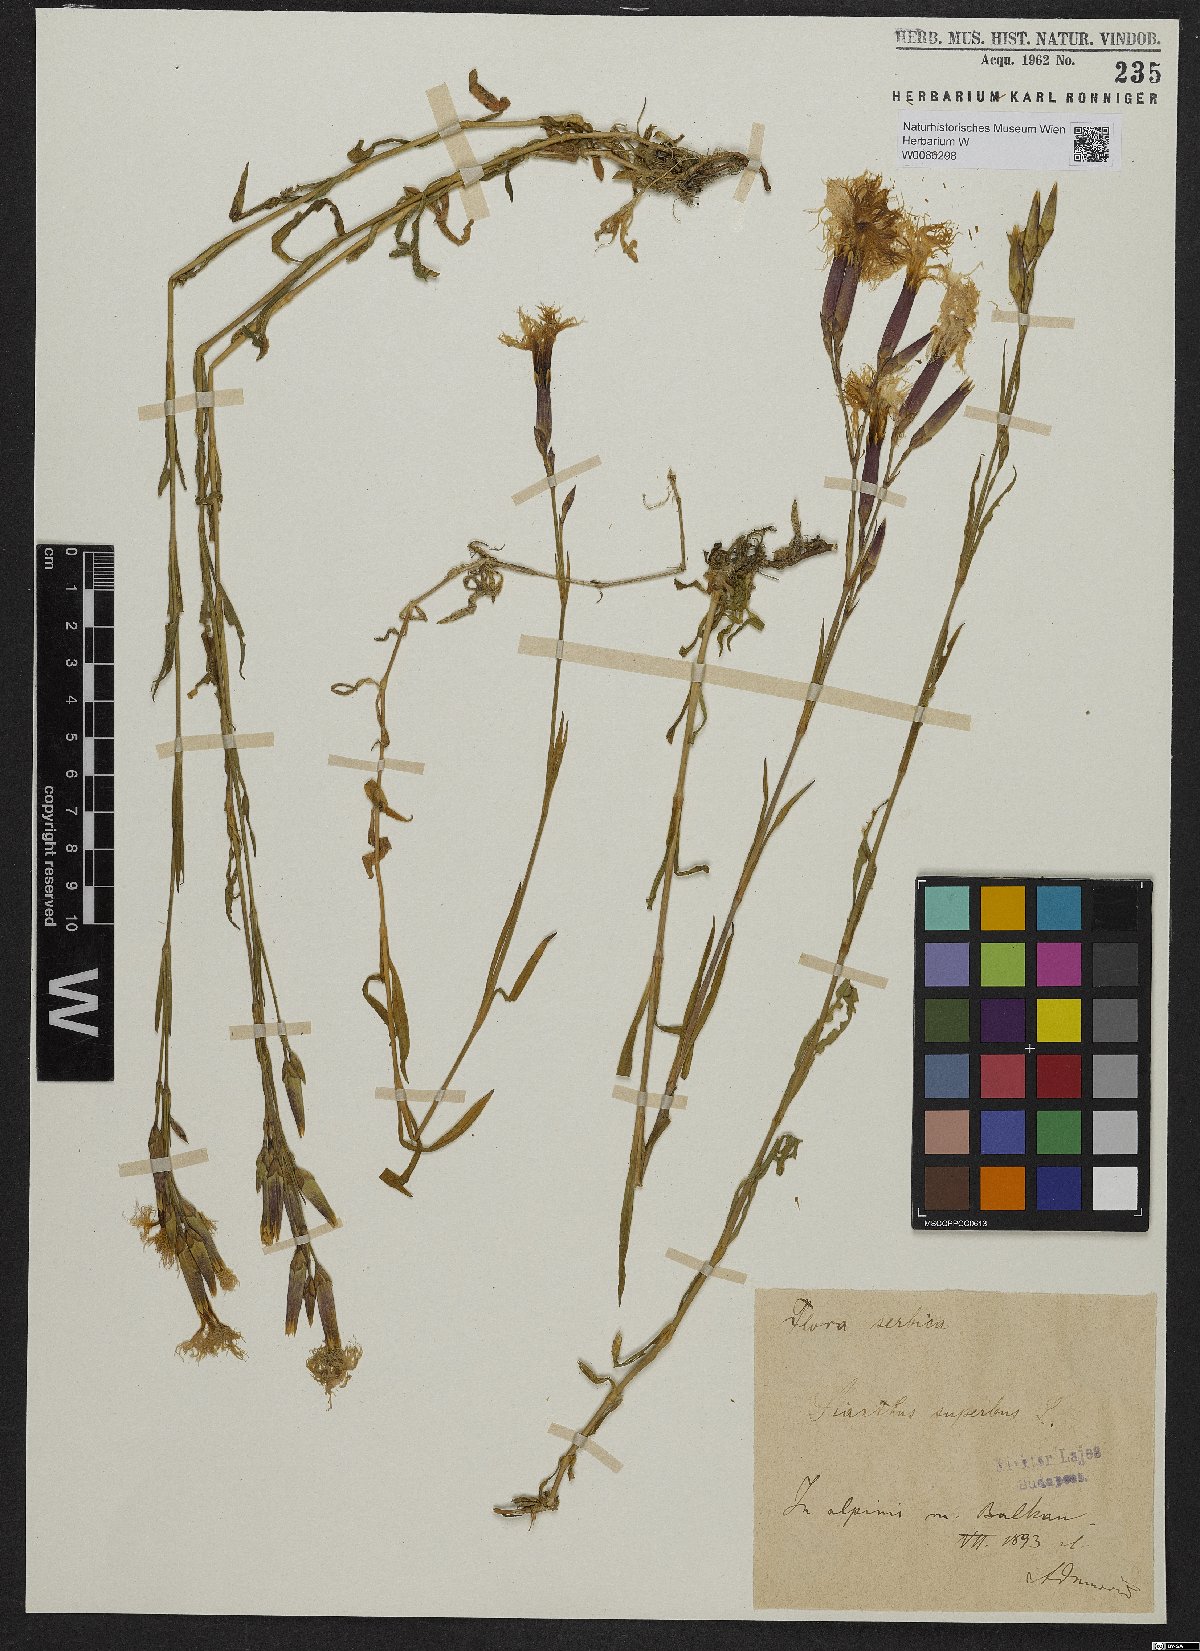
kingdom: Plantae
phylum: Tracheophyta
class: Magnoliopsida
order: Caryophyllales
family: Caryophyllaceae
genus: Dianthus
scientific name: Dianthus superbus
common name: Fringed pink
